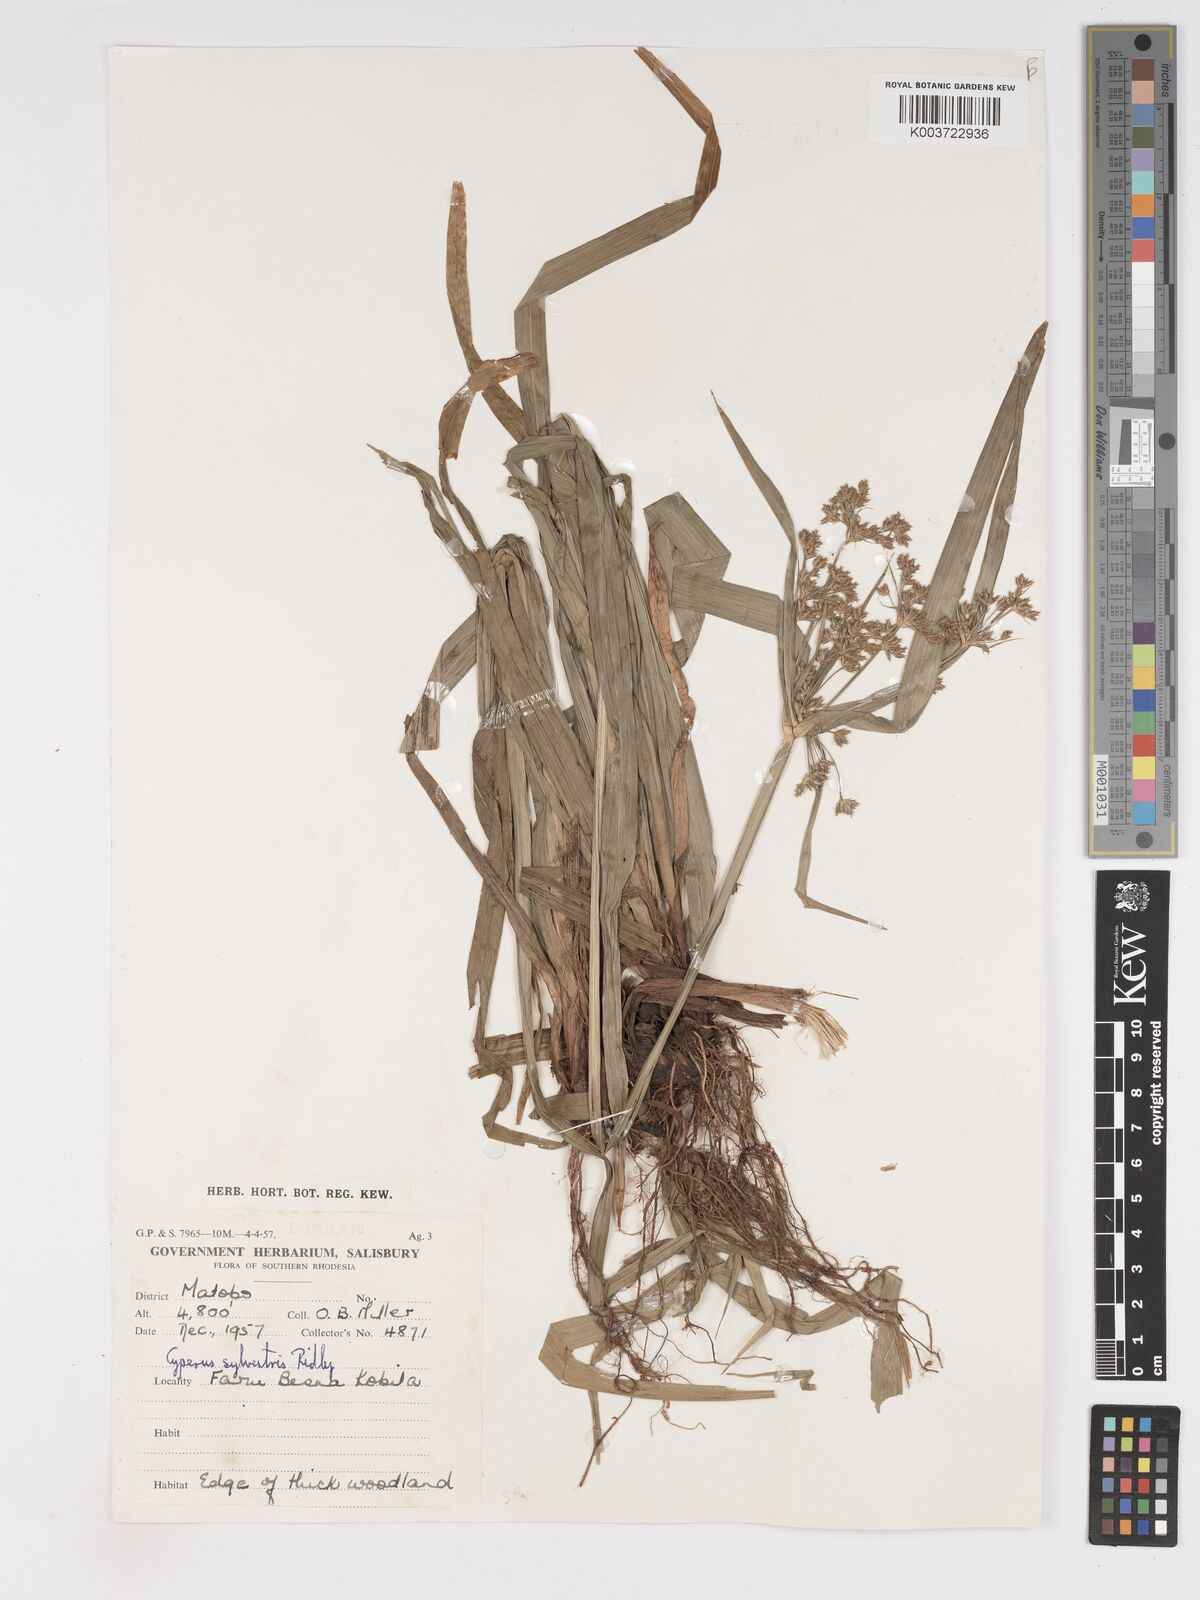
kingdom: Plantae
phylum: Tracheophyta
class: Liliopsida
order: Poales
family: Cyperaceae
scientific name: Cyperaceae
